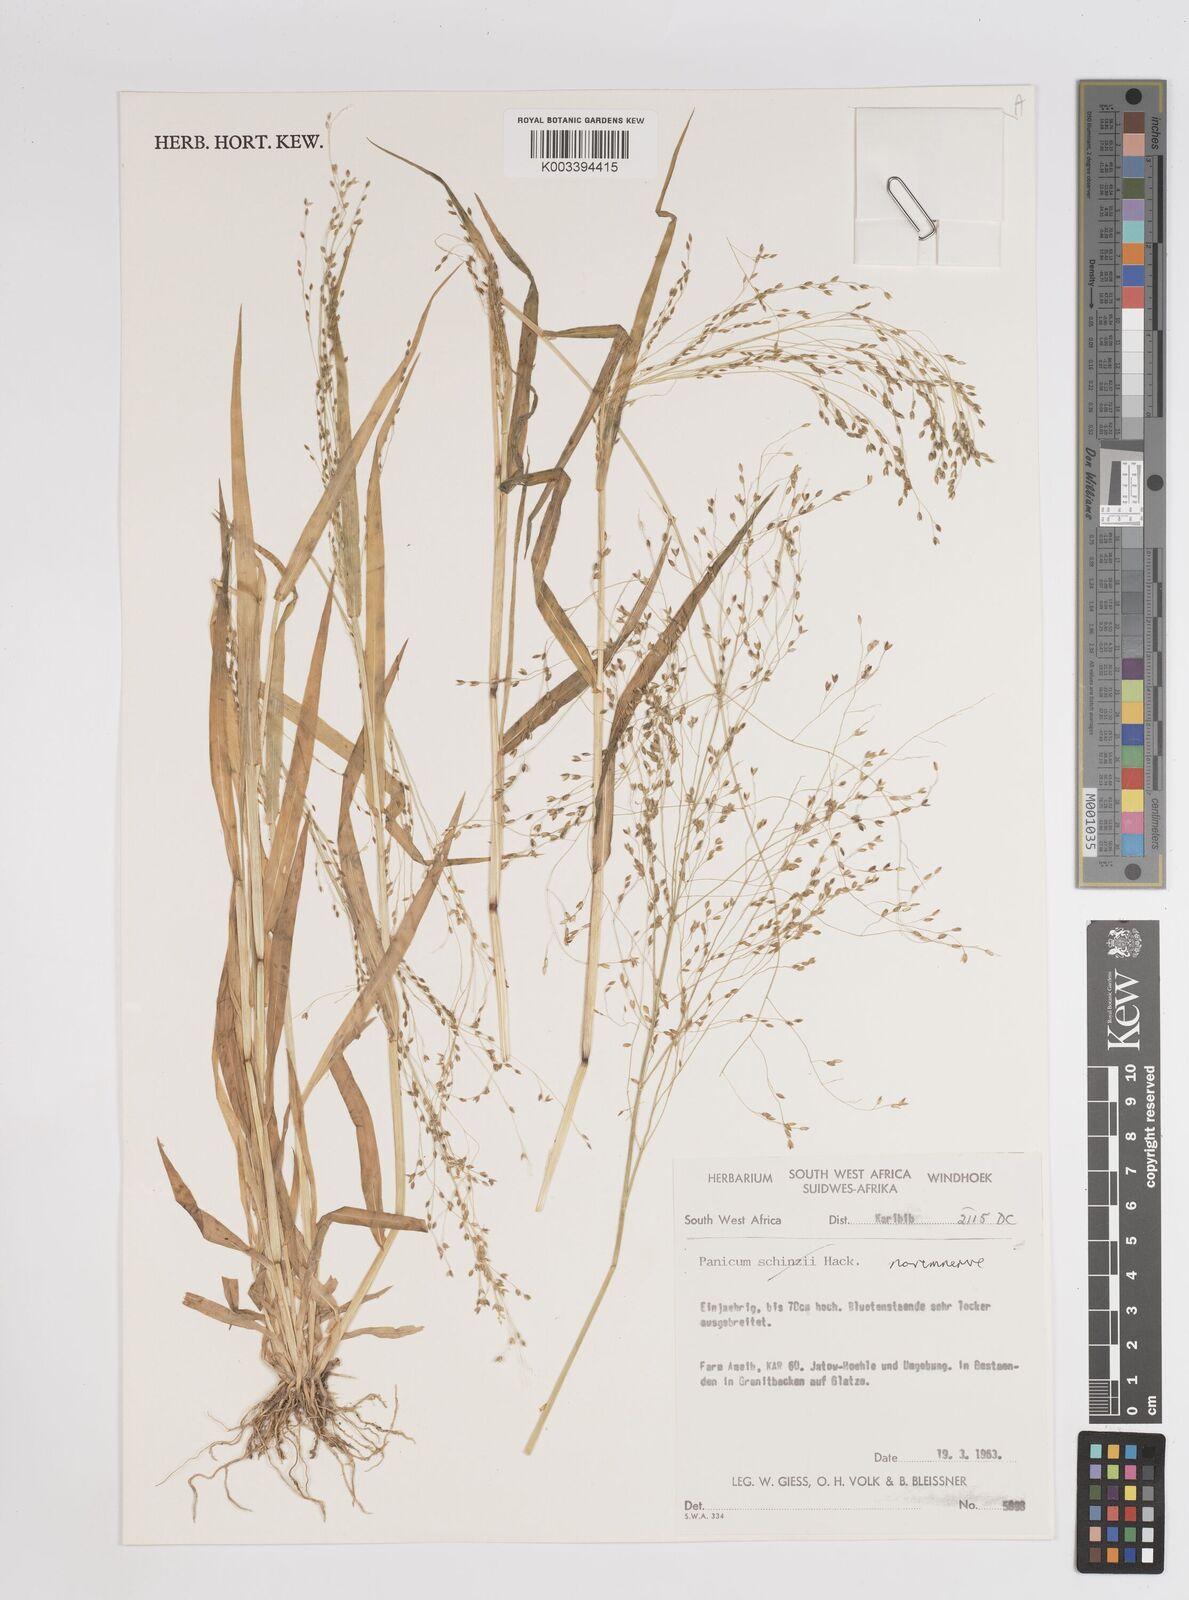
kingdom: Plantae
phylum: Tracheophyta
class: Liliopsida
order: Poales
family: Poaceae
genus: Panicum
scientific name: Panicum simulans
